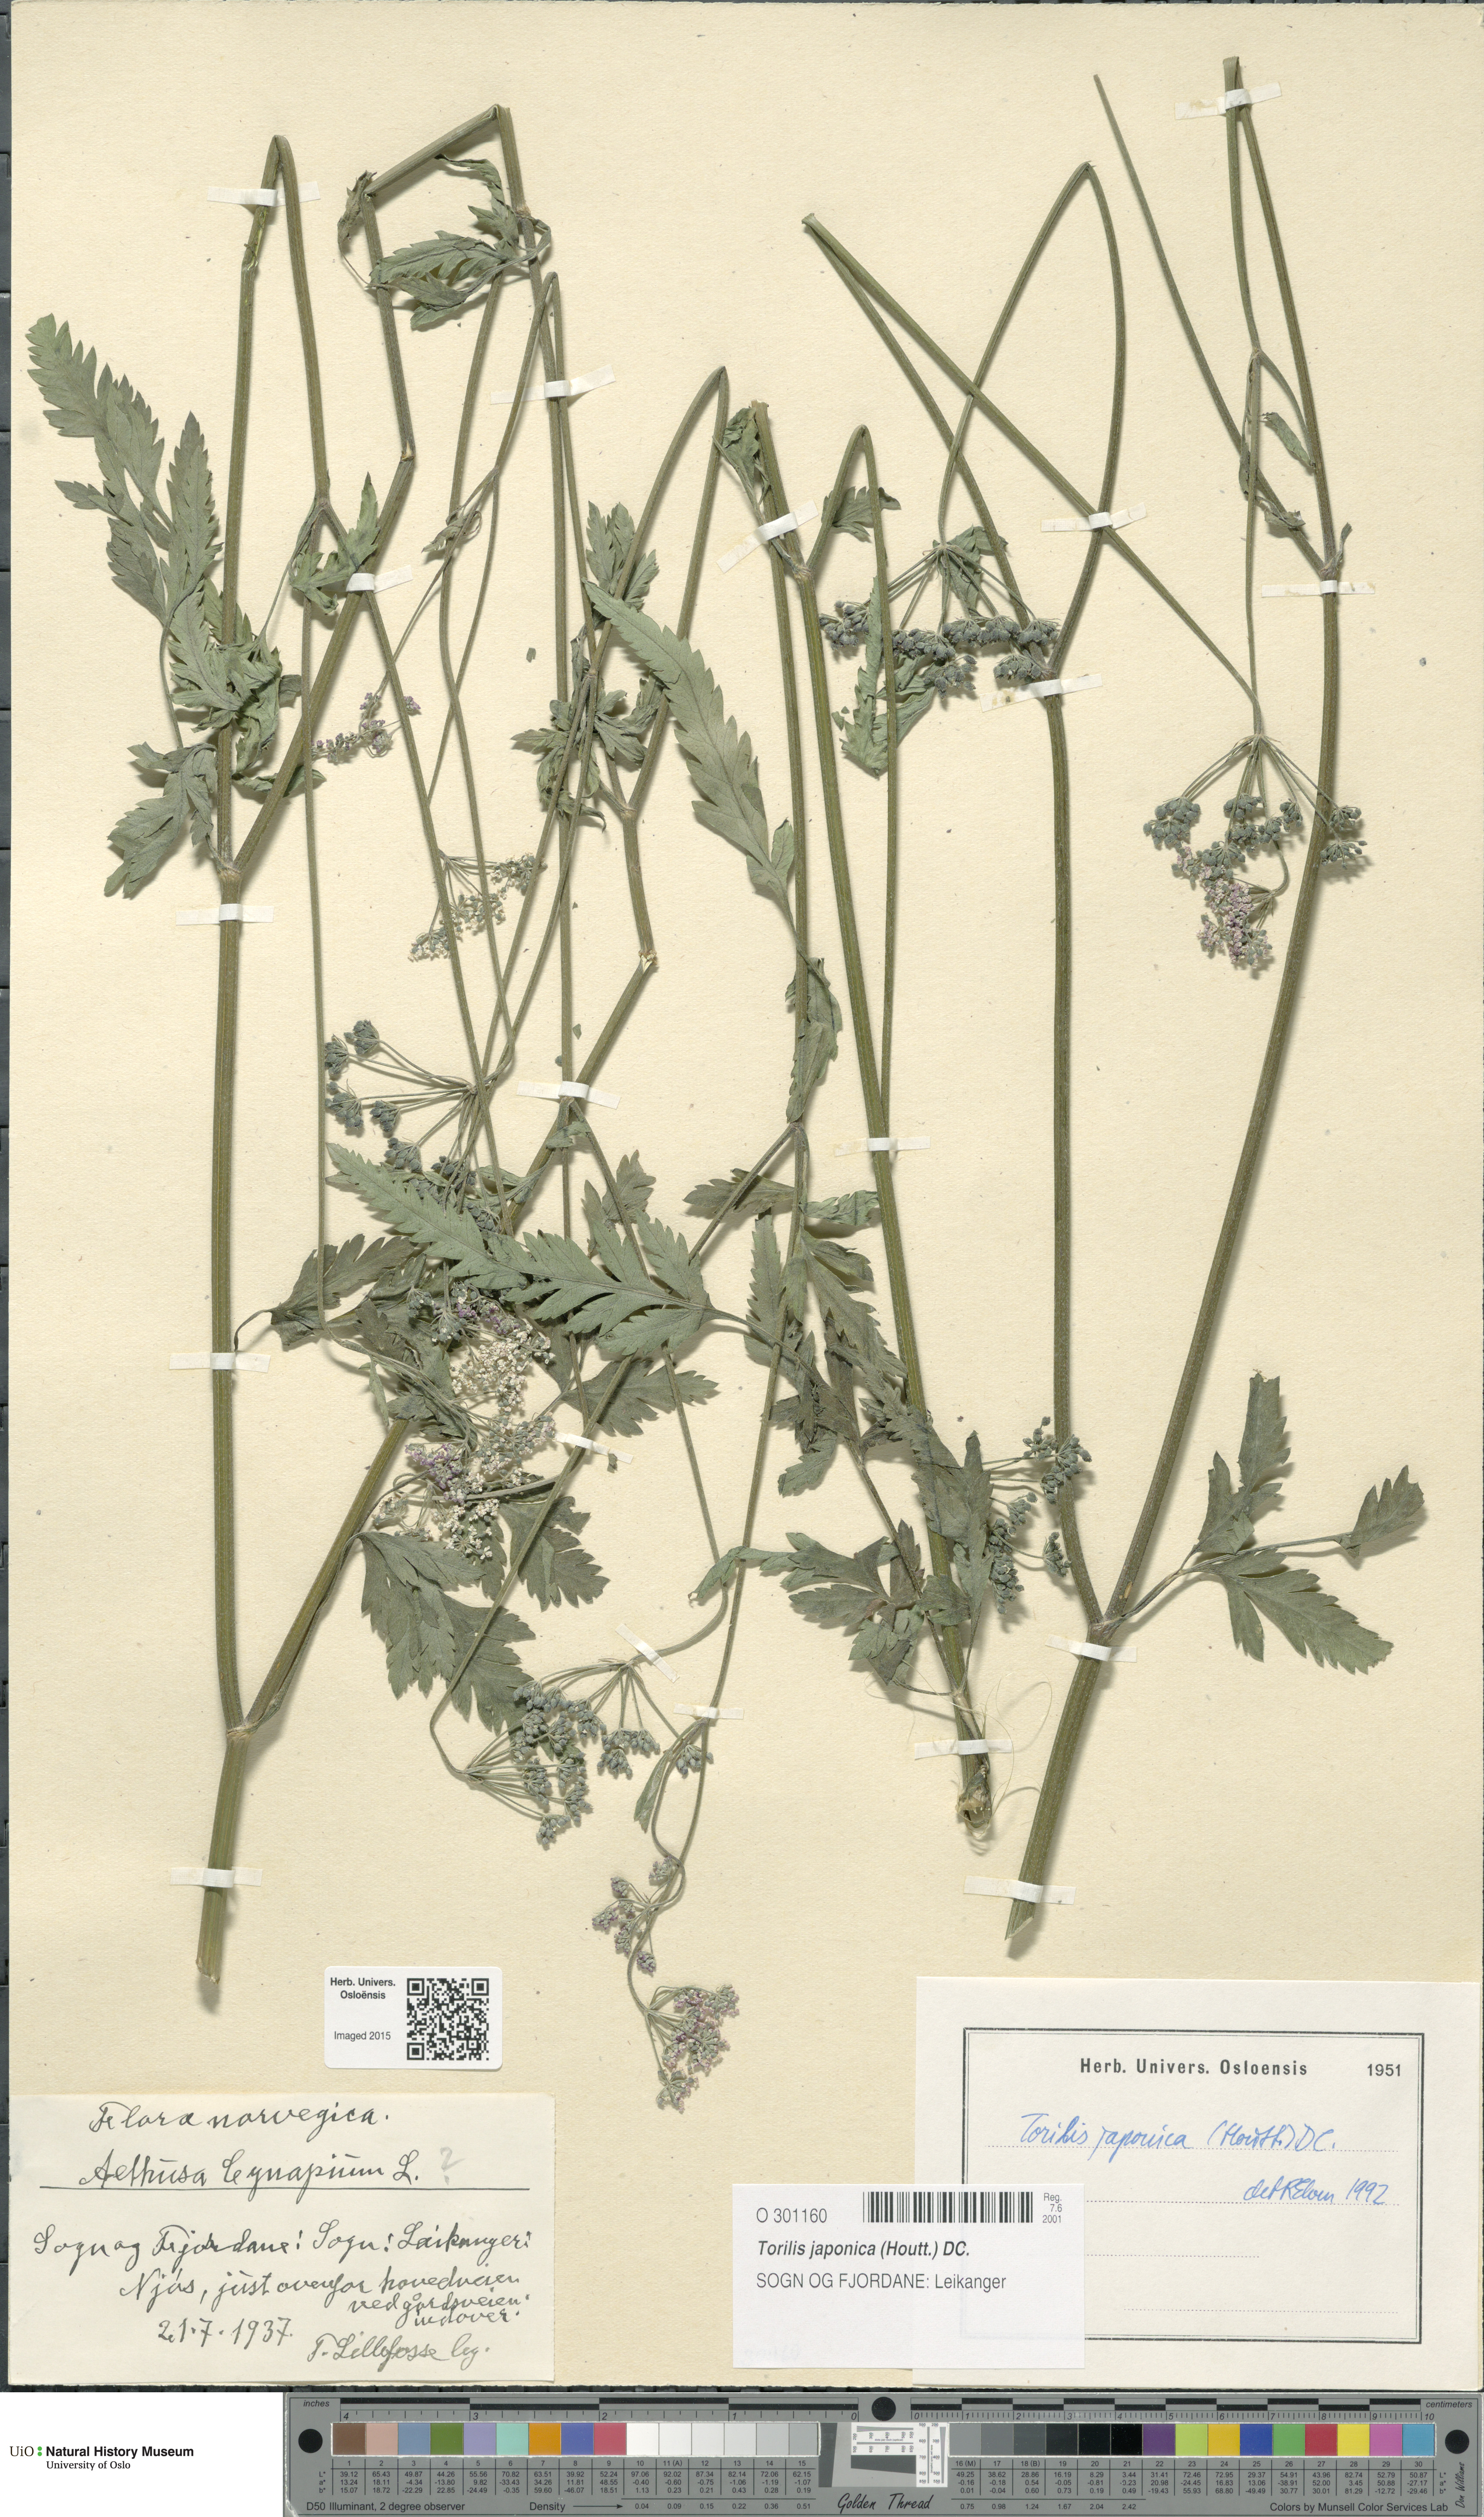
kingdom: Plantae
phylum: Tracheophyta
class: Magnoliopsida
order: Apiales
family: Apiaceae
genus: Torilis
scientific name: Torilis japonica
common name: Upright hedge-parsley
